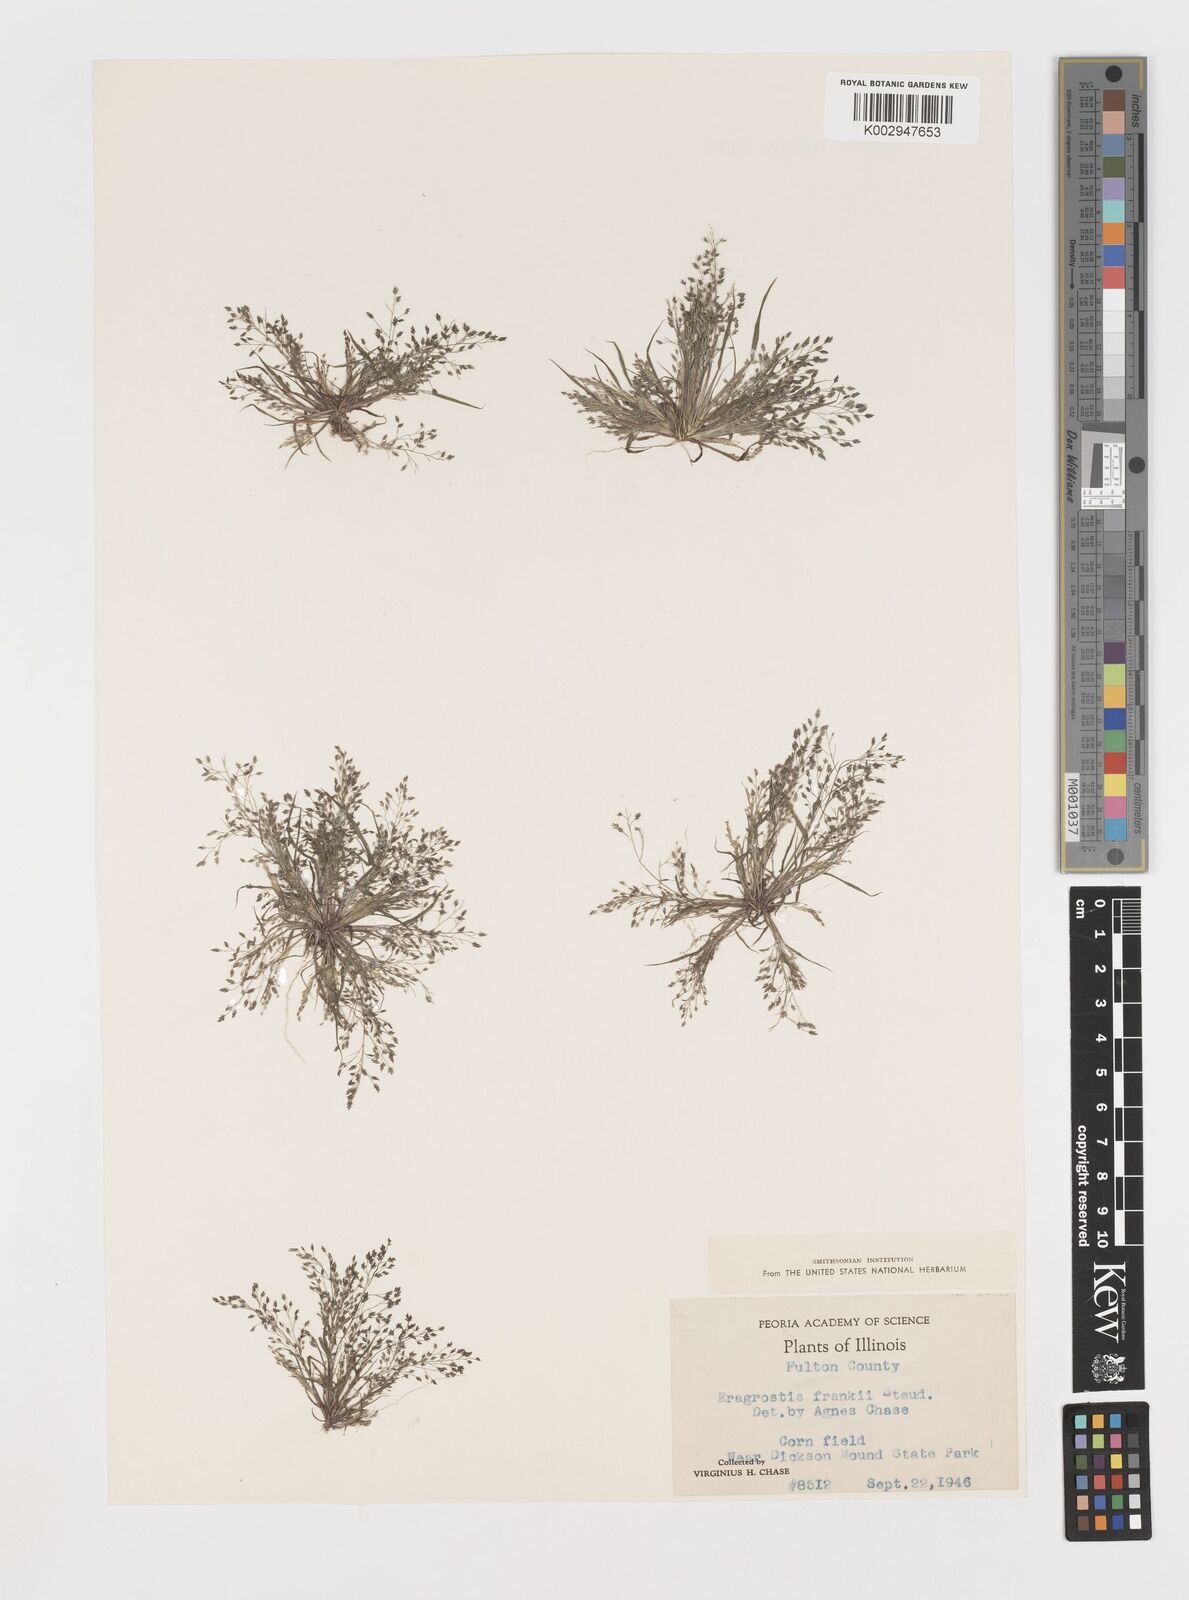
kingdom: Plantae
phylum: Tracheophyta
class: Liliopsida
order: Poales
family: Poaceae
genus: Eragrostis
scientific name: Eragrostis frankii
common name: Frank's lovegrass
